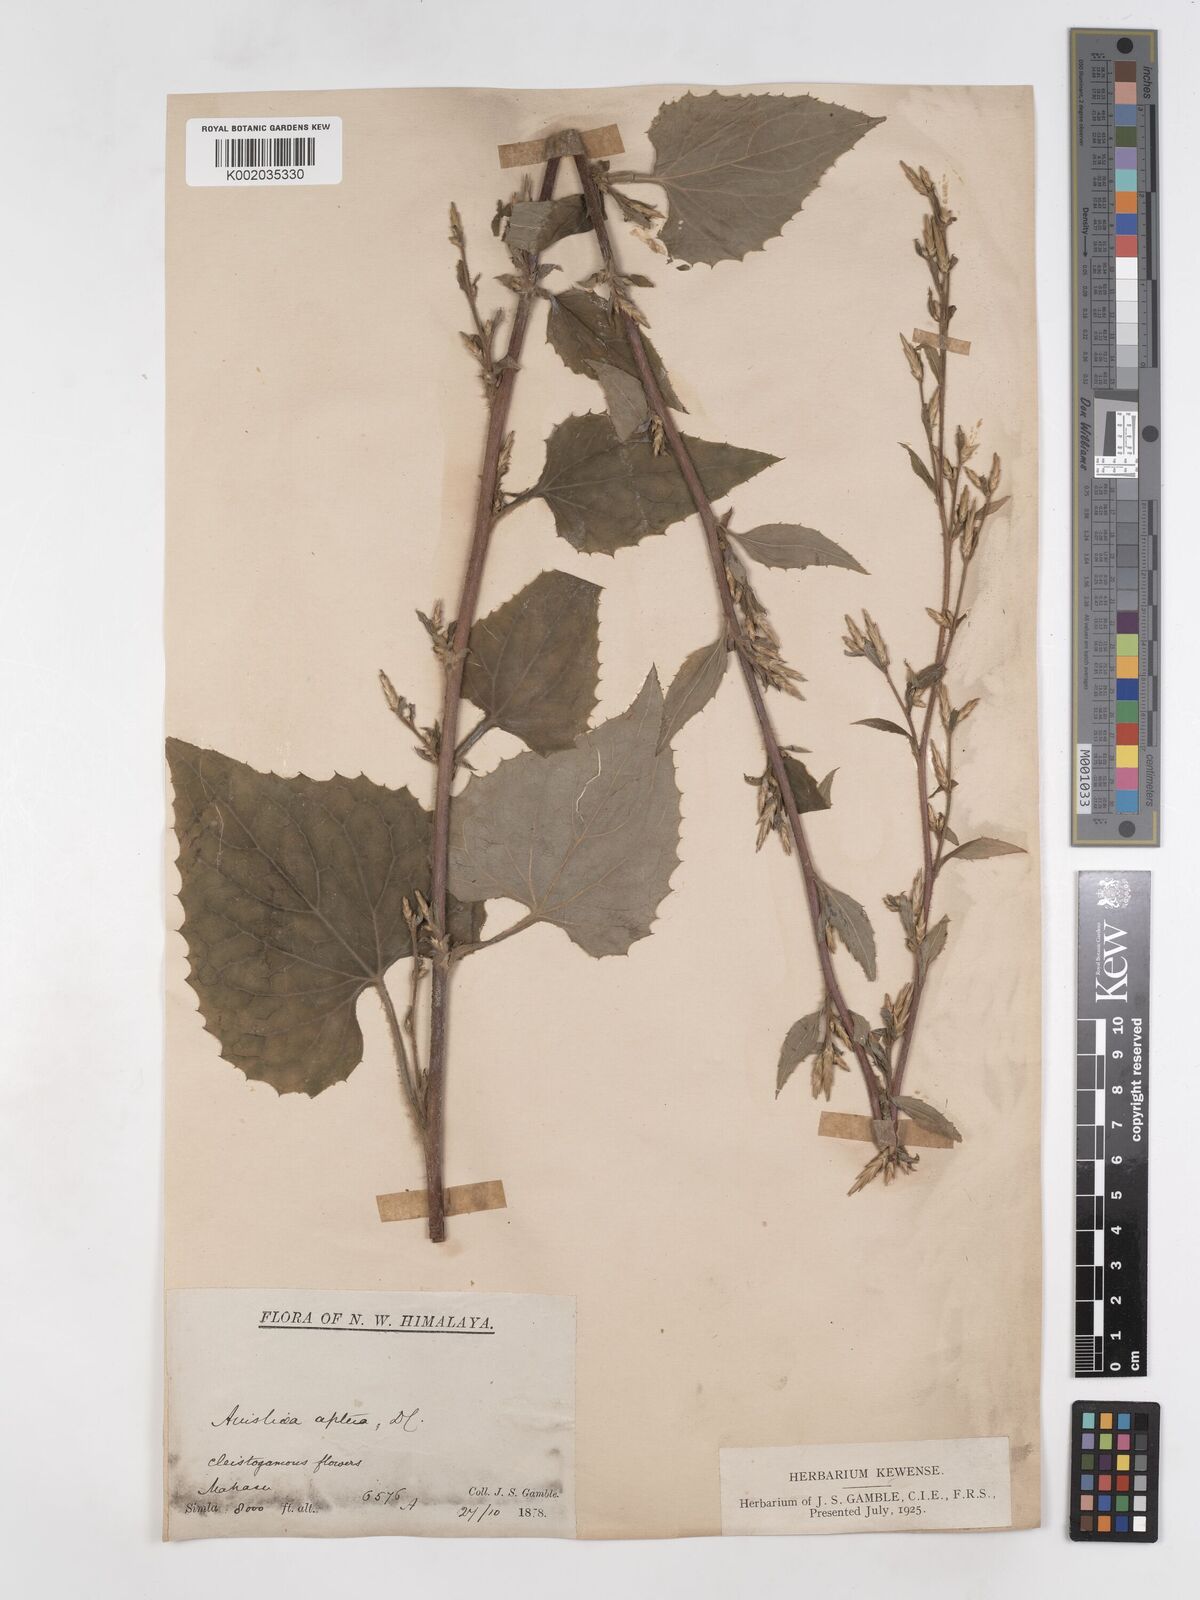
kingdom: Plantae
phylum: Tracheophyta
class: Magnoliopsida
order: Asterales
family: Asteraceae
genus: Ainsliaea
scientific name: Ainsliaea aptera
